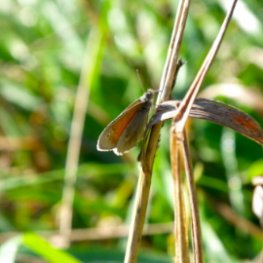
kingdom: Animalia
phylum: Arthropoda
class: Insecta
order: Lepidoptera
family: Nymphalidae
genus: Coenonympha
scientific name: Coenonympha tullia
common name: Large Heath
